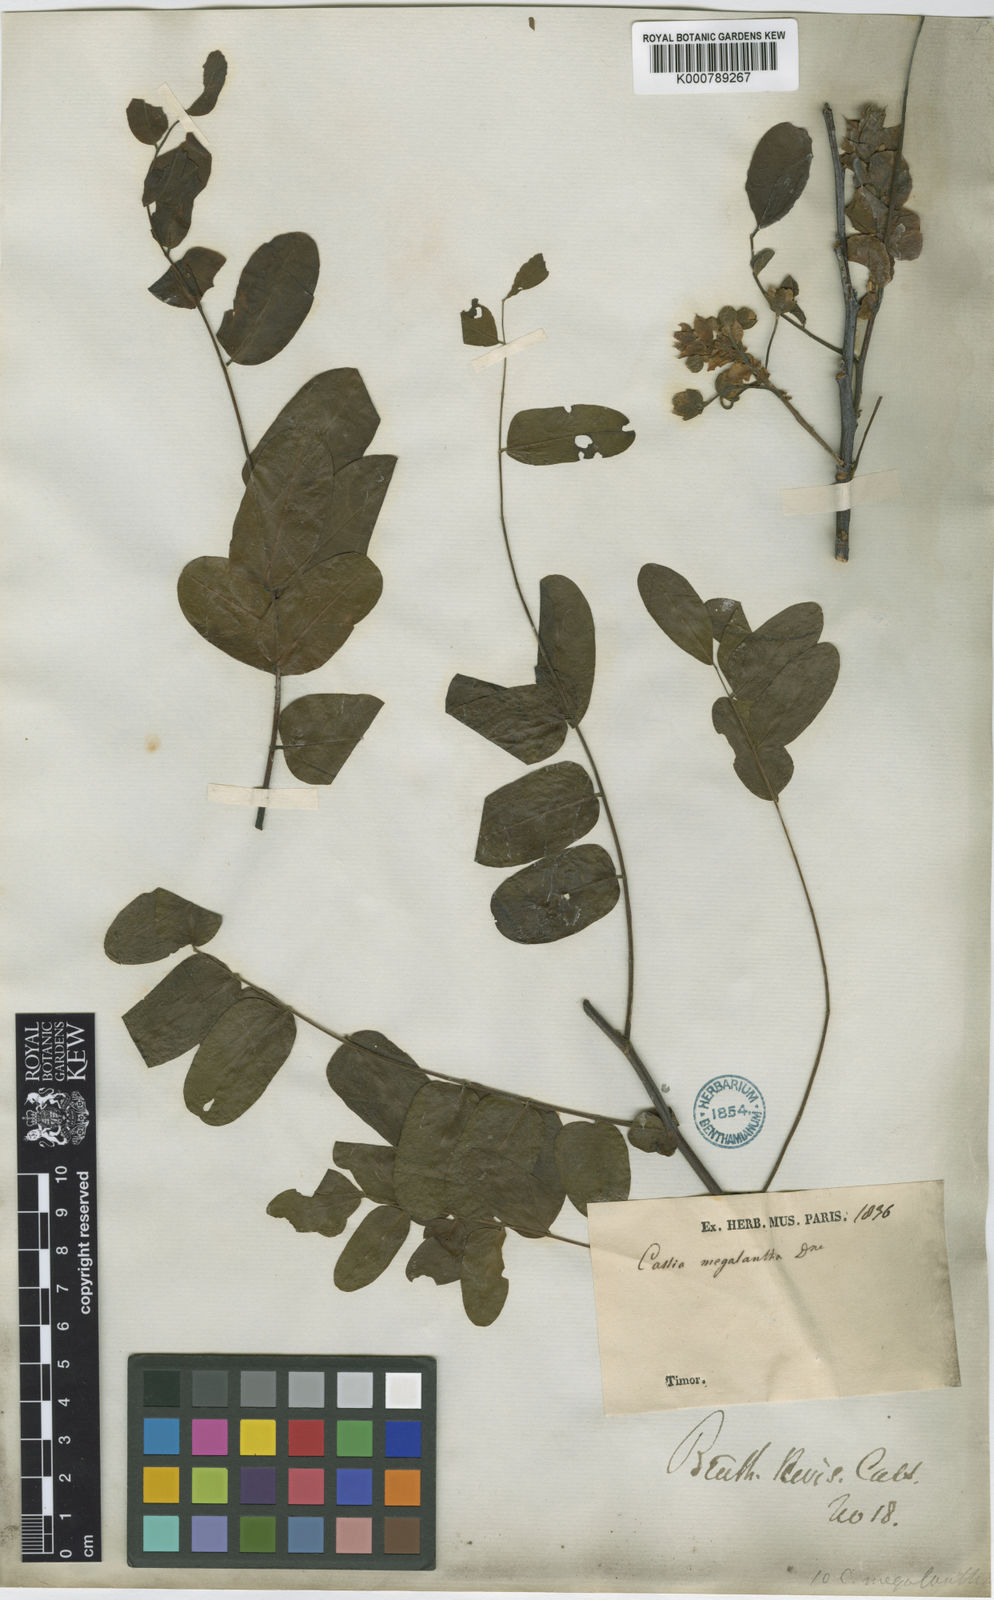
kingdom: Plantae
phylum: Tracheophyta
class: Magnoliopsida
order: Fabales
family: Fabaceae
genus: Cassia
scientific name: Cassia
